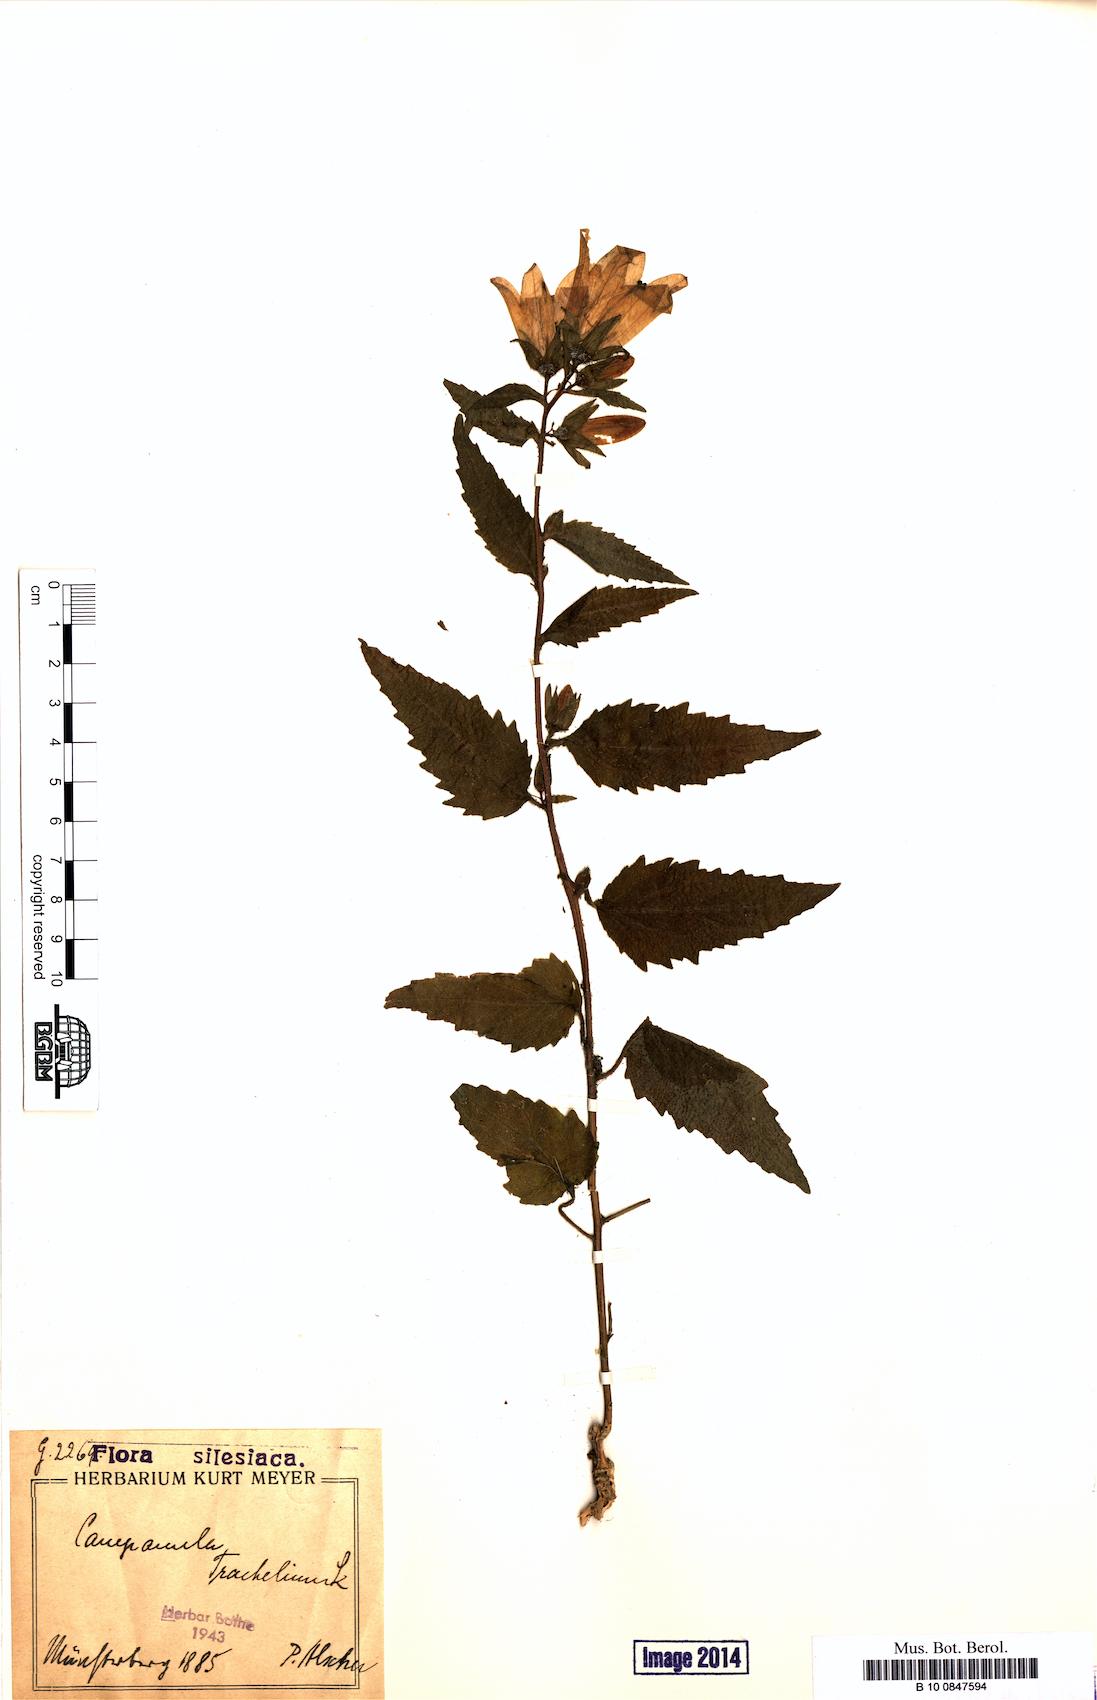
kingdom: Plantae
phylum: Tracheophyta
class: Magnoliopsida
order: Asterales
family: Campanulaceae
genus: Campanula
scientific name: Campanula trachelium
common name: Nettle-leaved bellflower
